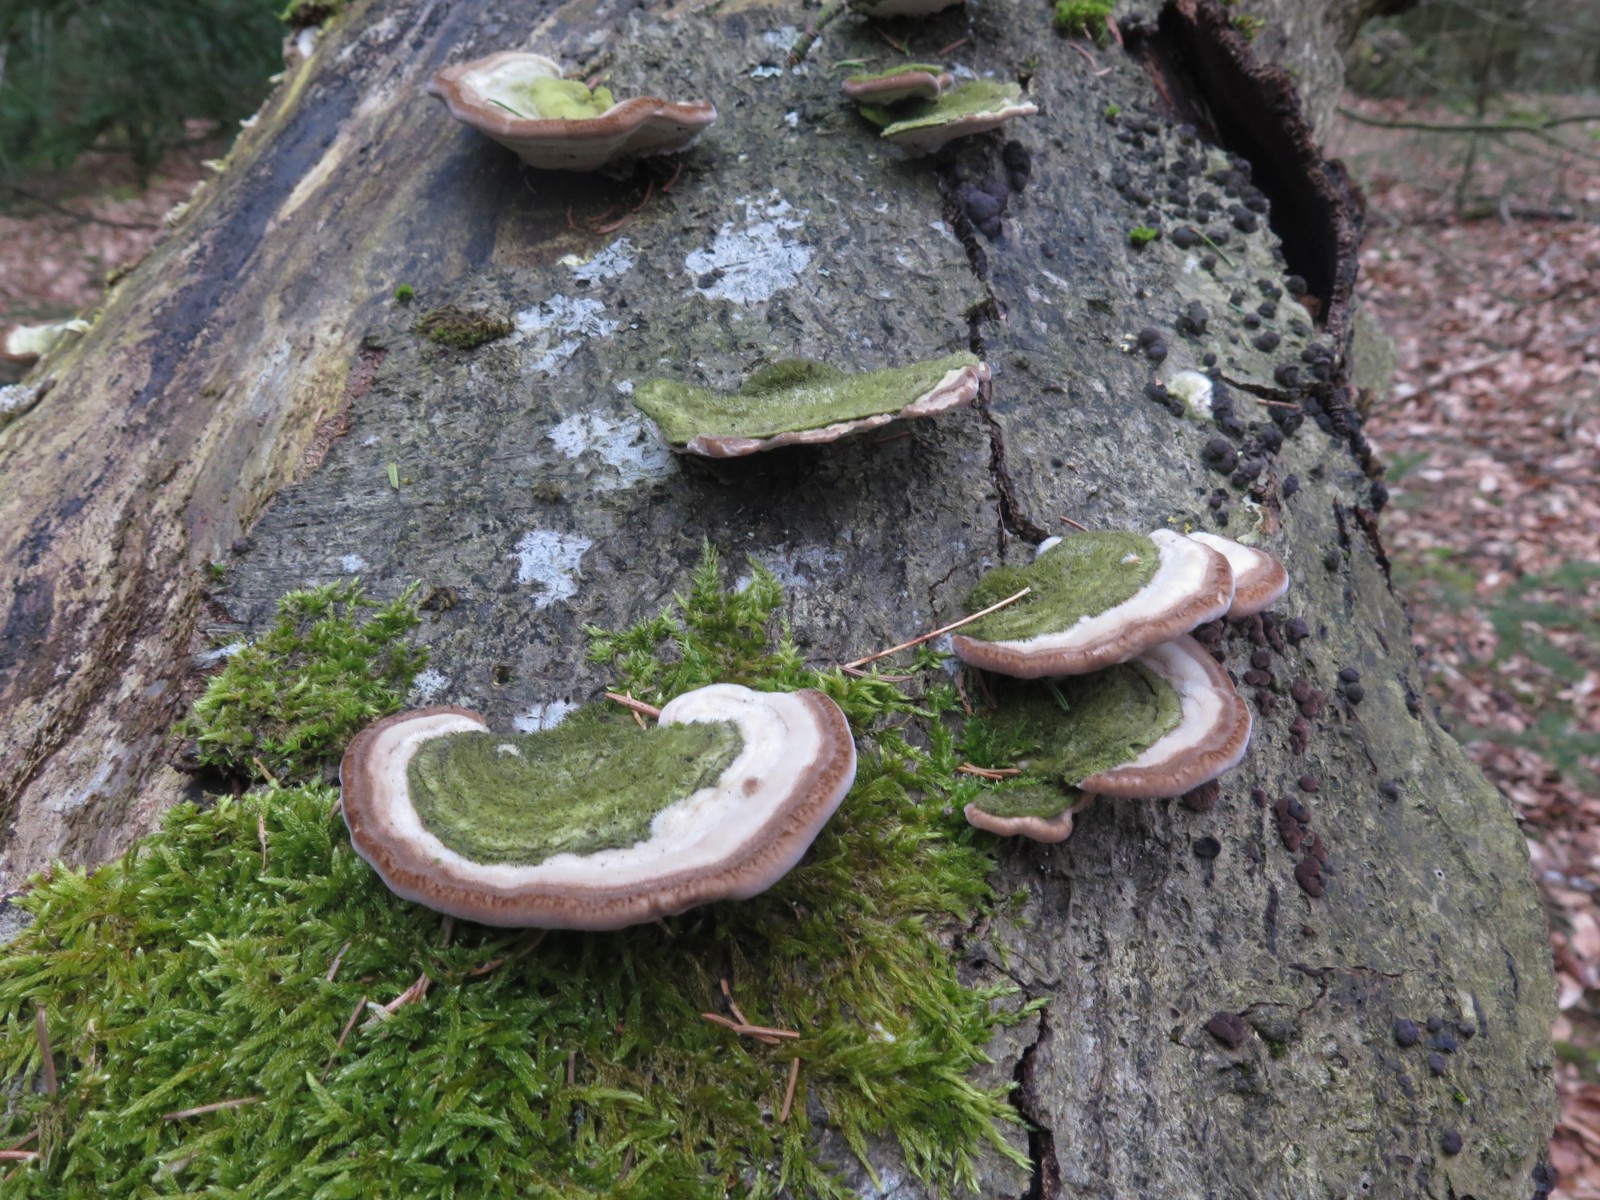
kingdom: Fungi
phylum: Basidiomycota
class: Agaricomycetes
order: Polyporales
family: Polyporaceae
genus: Trametes
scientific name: Trametes hirsuta
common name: håret læderporesvamp
